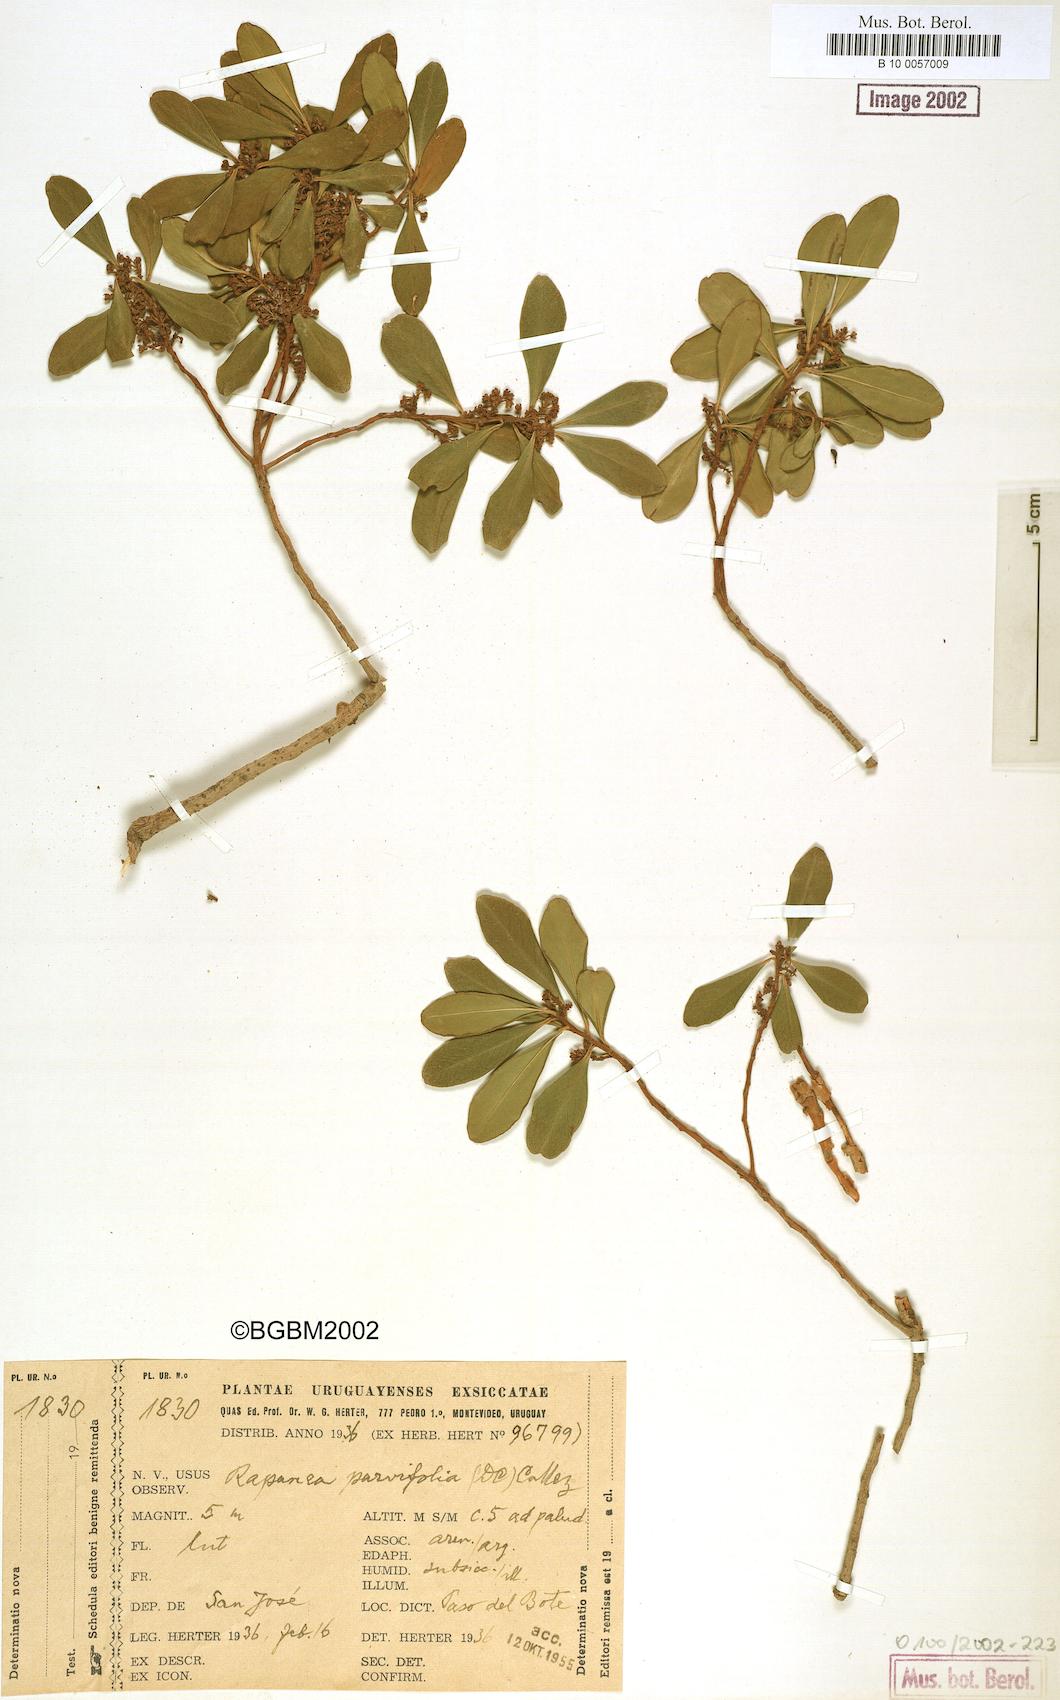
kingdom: Plantae
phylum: Tracheophyta
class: Magnoliopsida
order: Ericales
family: Primulaceae
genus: Myrsine
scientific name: Myrsine parvifolia
